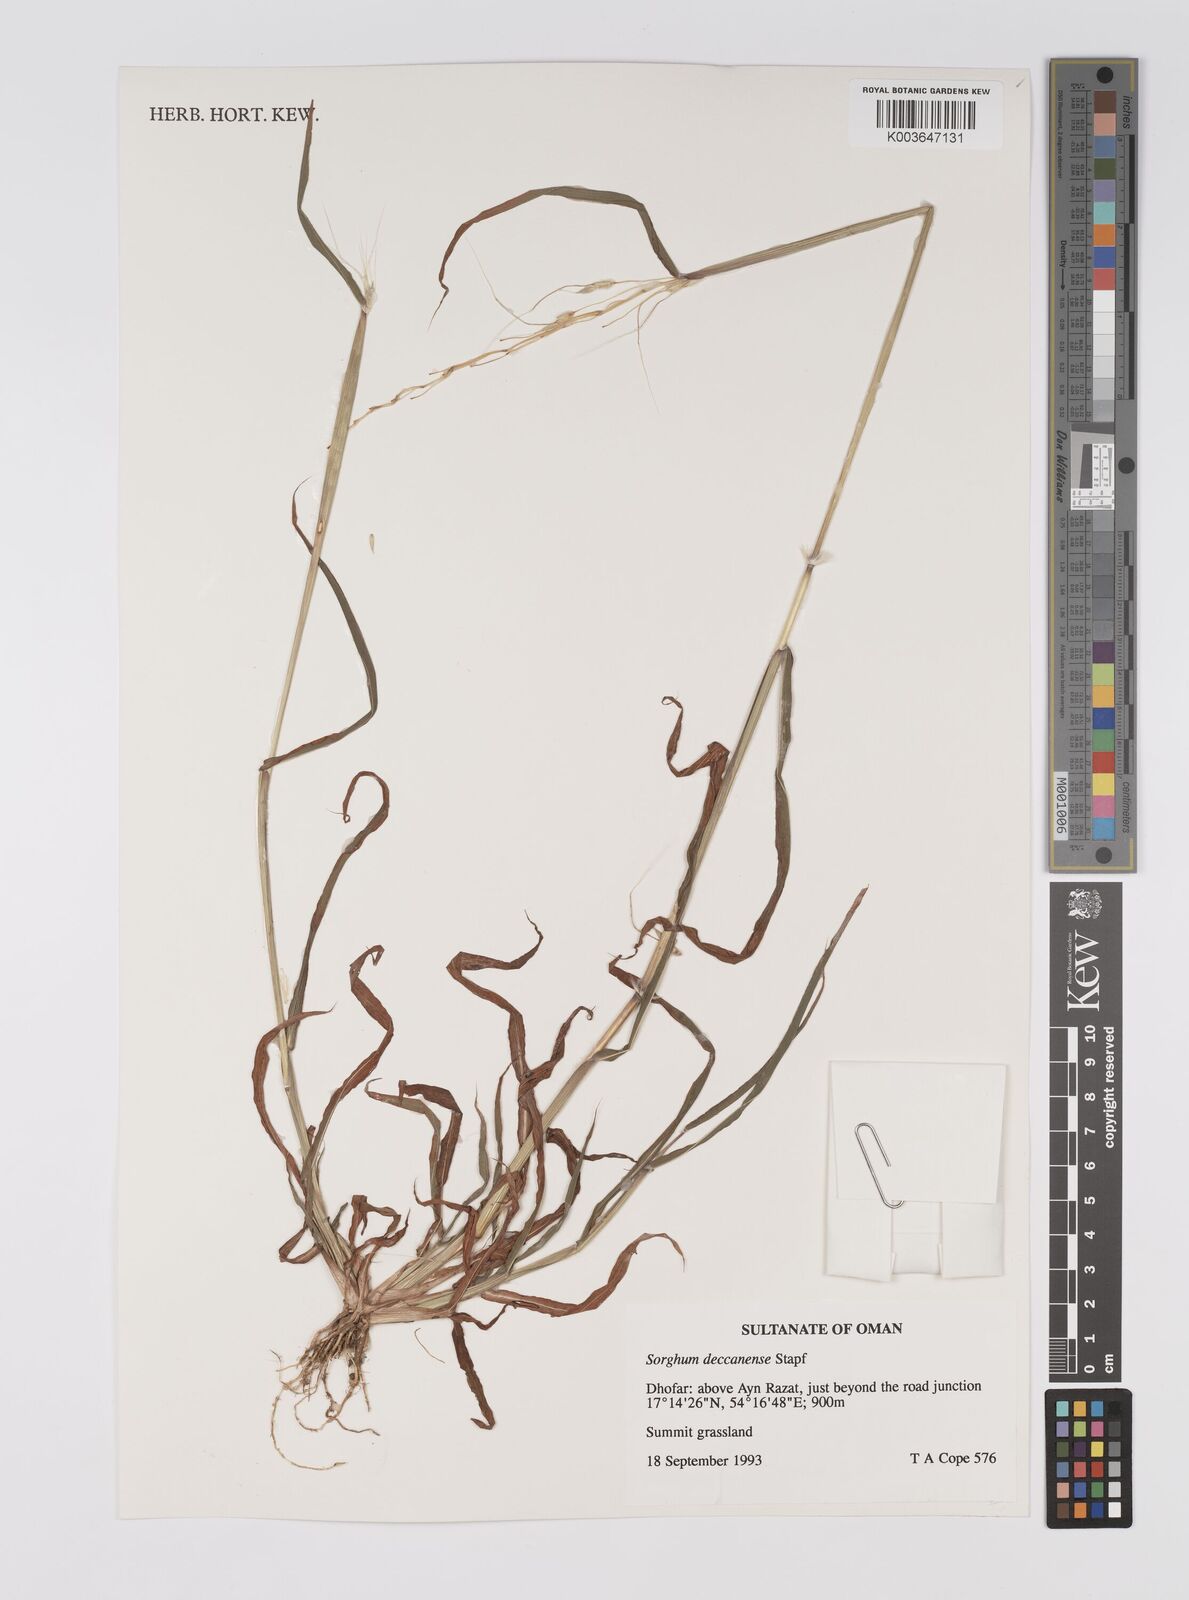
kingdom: Plantae
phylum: Tracheophyta
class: Liliopsida
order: Poales
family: Poaceae
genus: Sarga
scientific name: Sarga purpureosericea
